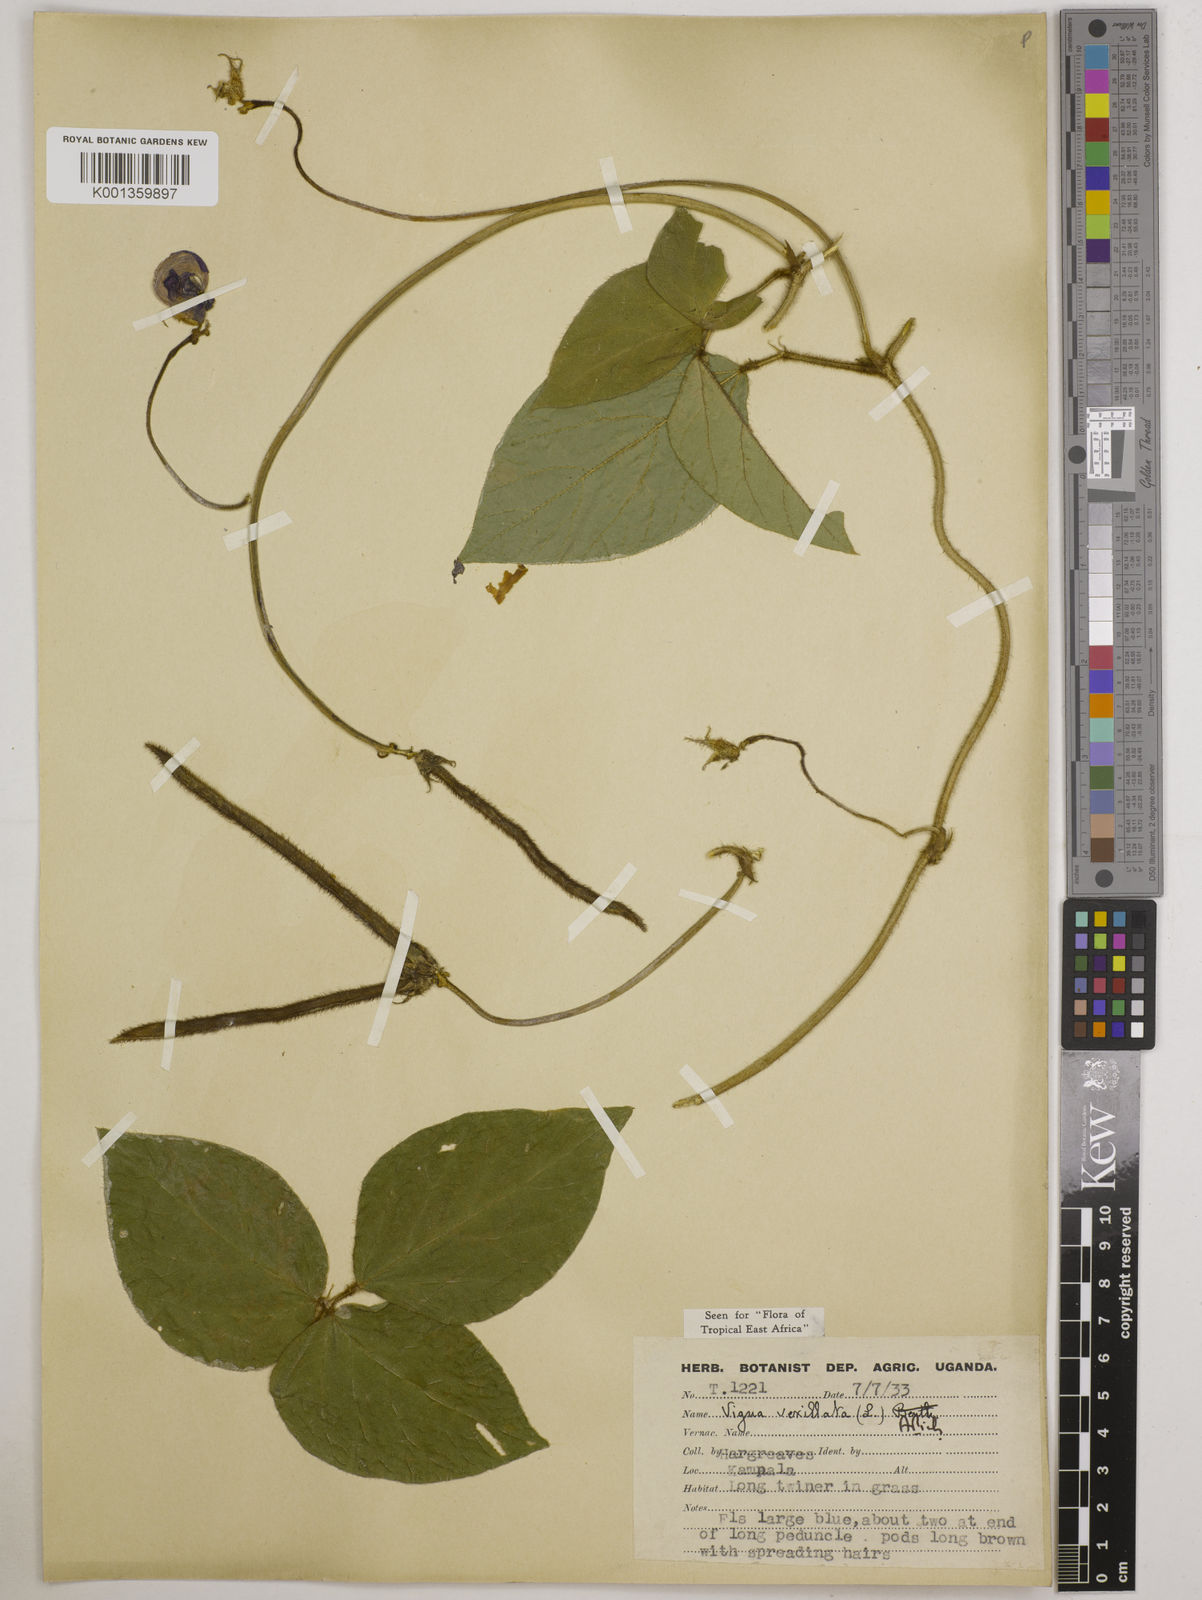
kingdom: Plantae
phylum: Tracheophyta
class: Magnoliopsida
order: Fabales
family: Fabaceae
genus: Vigna
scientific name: Vigna vexillata
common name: Zombi pea
